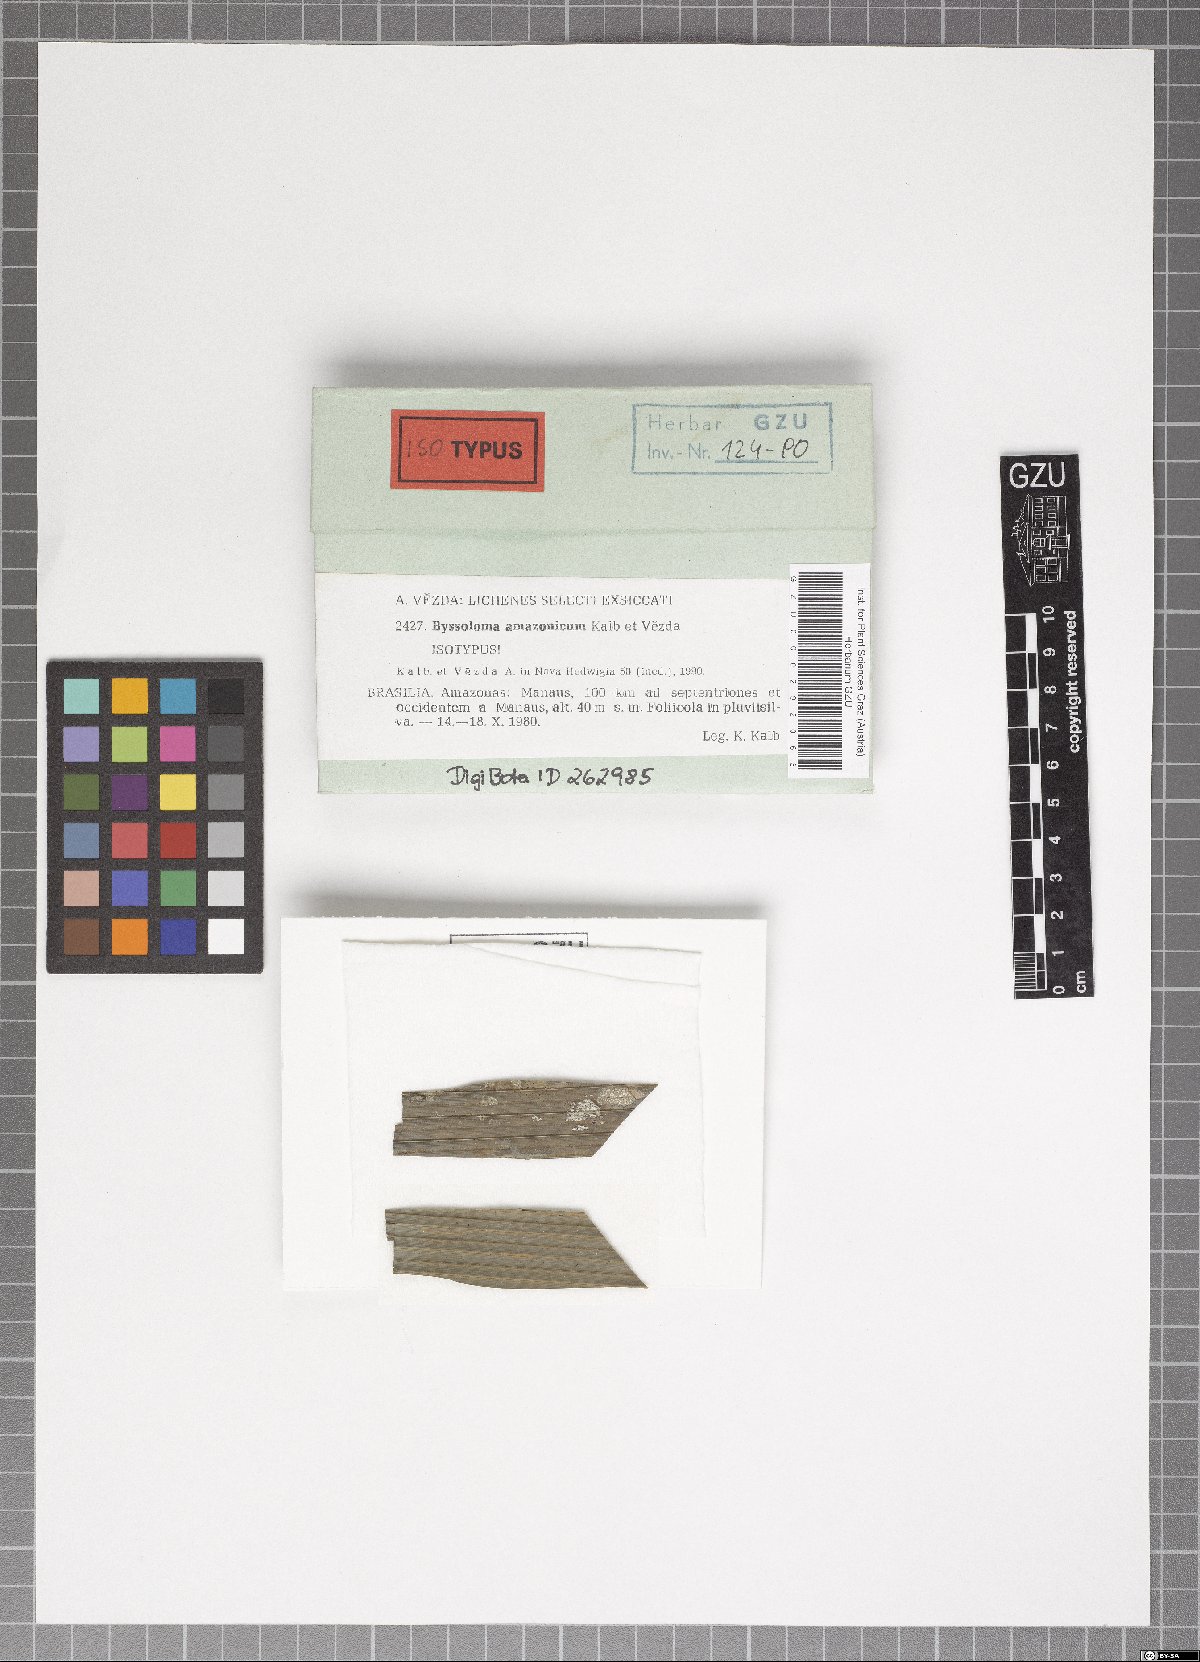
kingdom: Fungi
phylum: Ascomycota
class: Lecanoromycetes
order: Lecanorales
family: Byssolomataceae
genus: Byssoloma
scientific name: Byssoloma amazonicum
